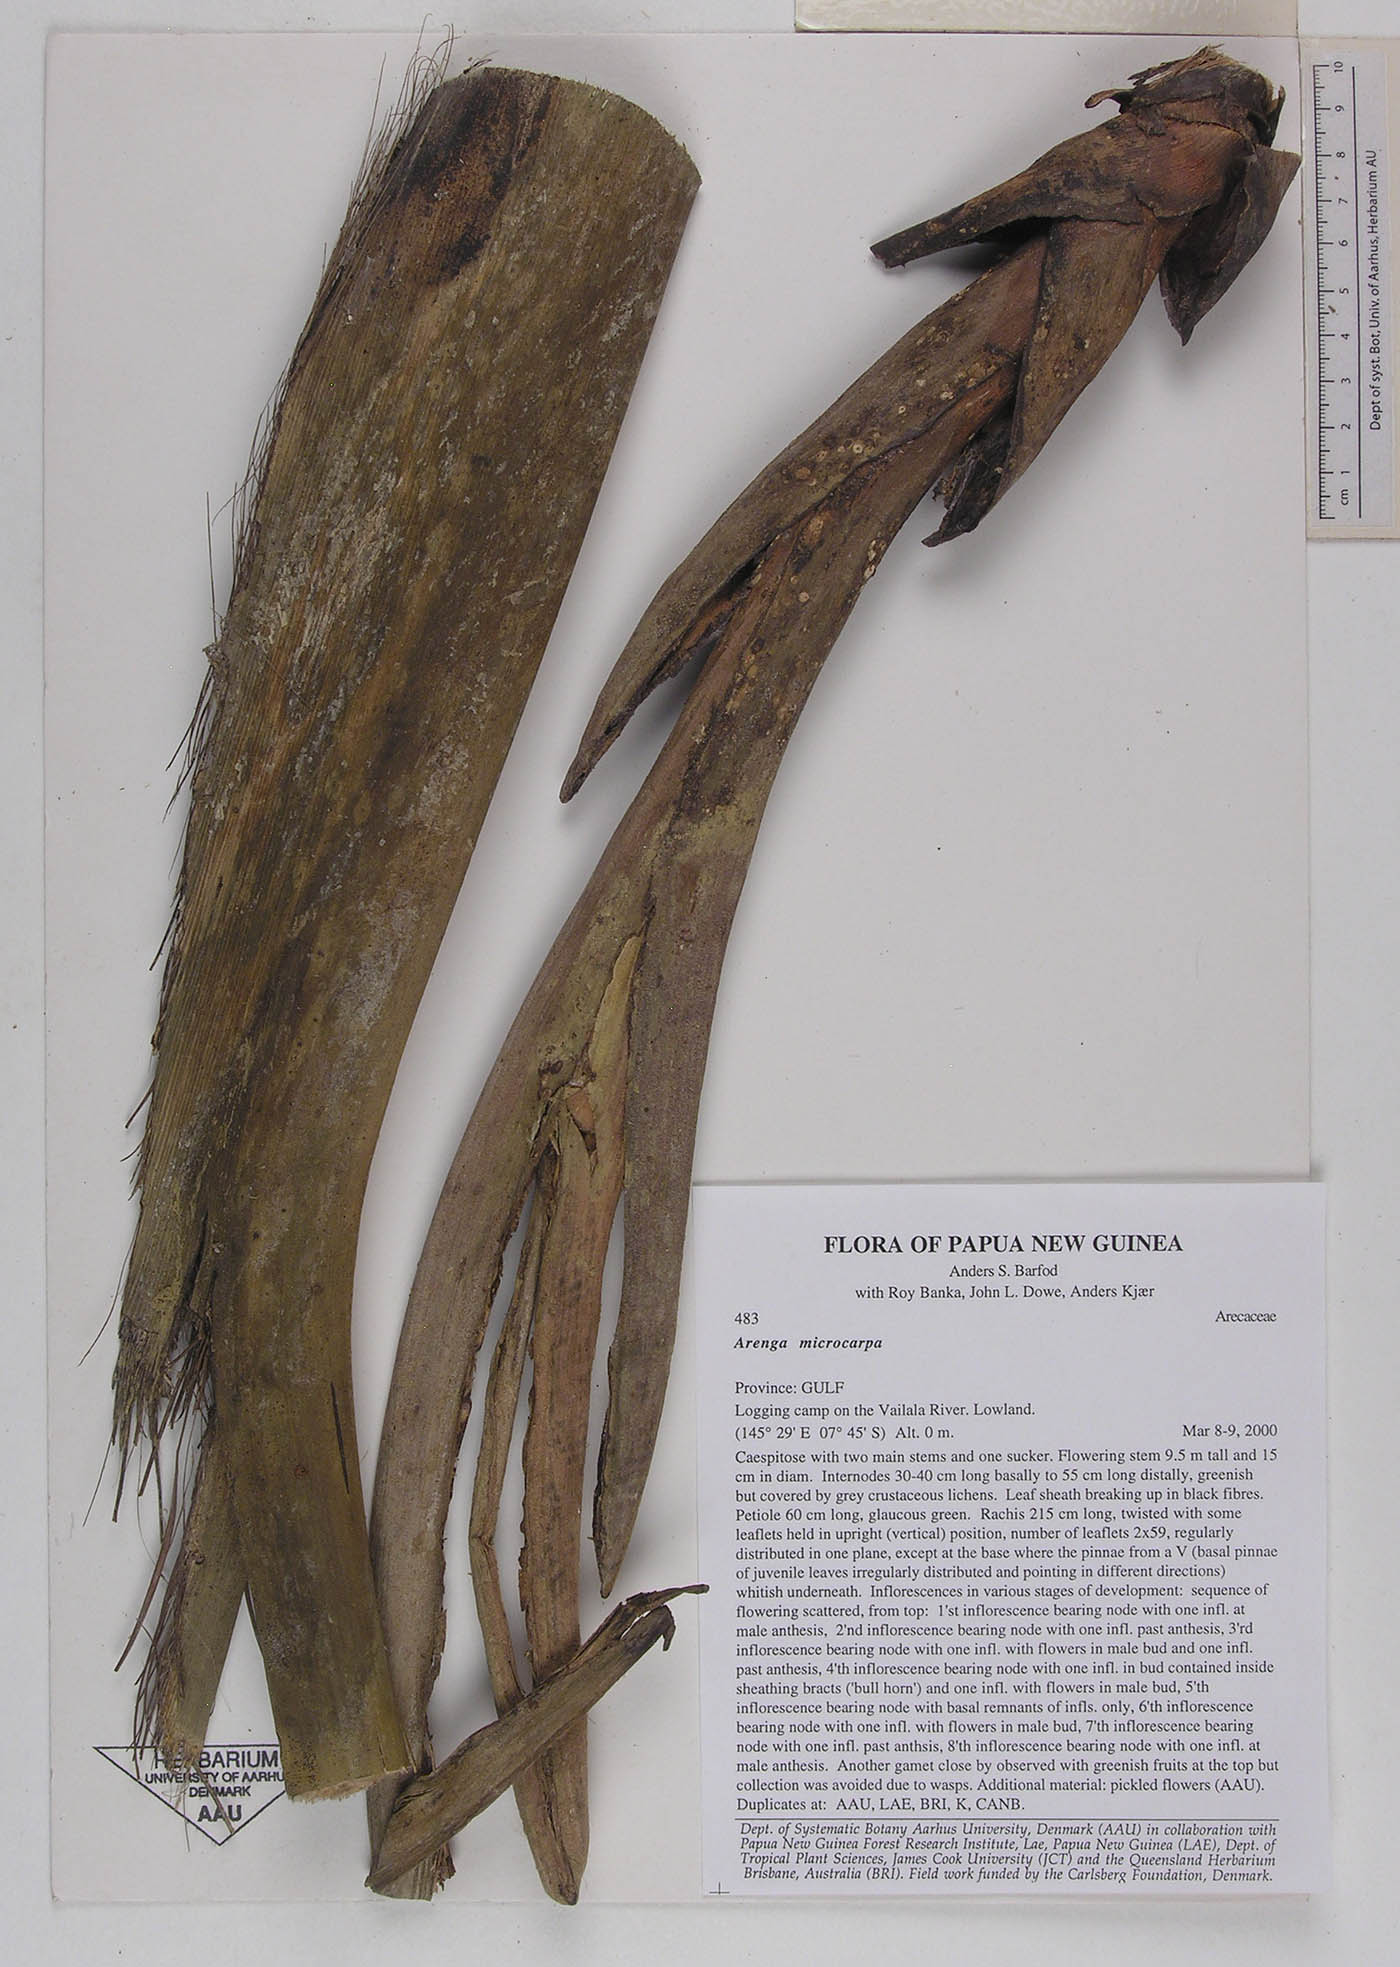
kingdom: Plantae
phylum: Tracheophyta
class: Liliopsida
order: Arecales
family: Arecaceae
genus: Arenga
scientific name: Arenga microcarpa
